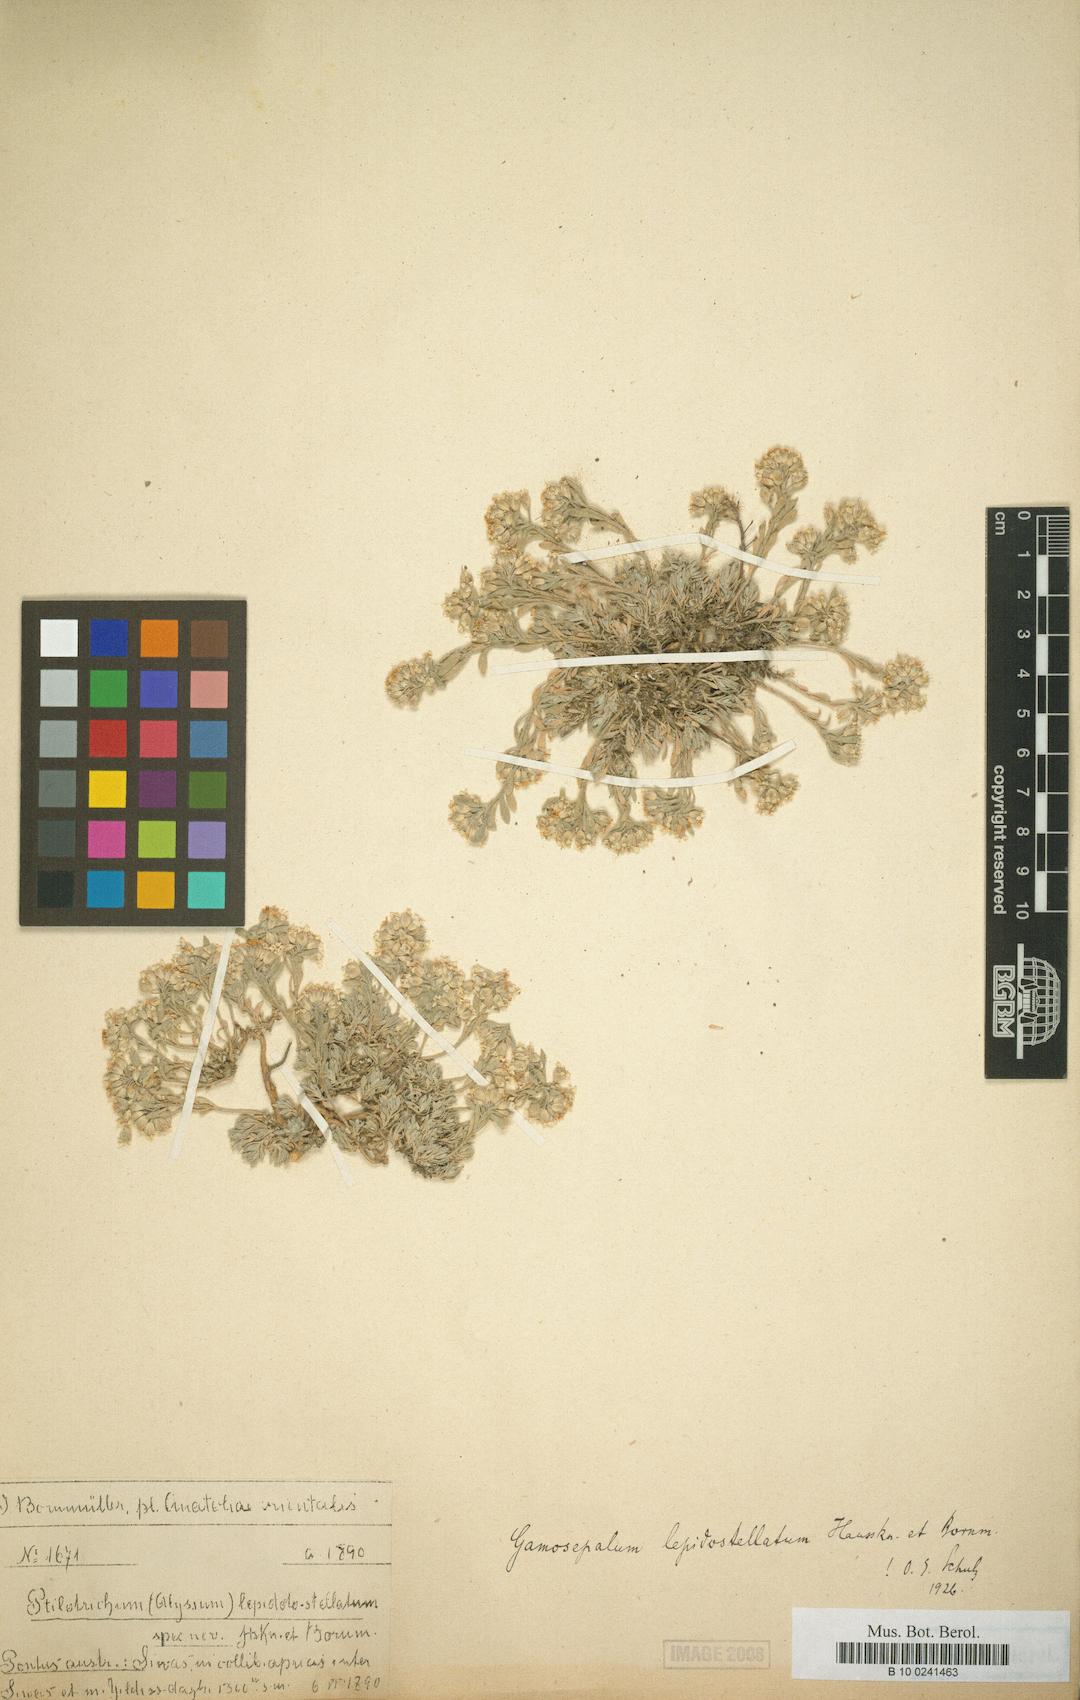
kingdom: Plantae
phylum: Tracheophyta
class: Magnoliopsida
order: Brassicales
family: Brassicaceae
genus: Alyssum
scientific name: Alyssum lepidoto-stellatum
